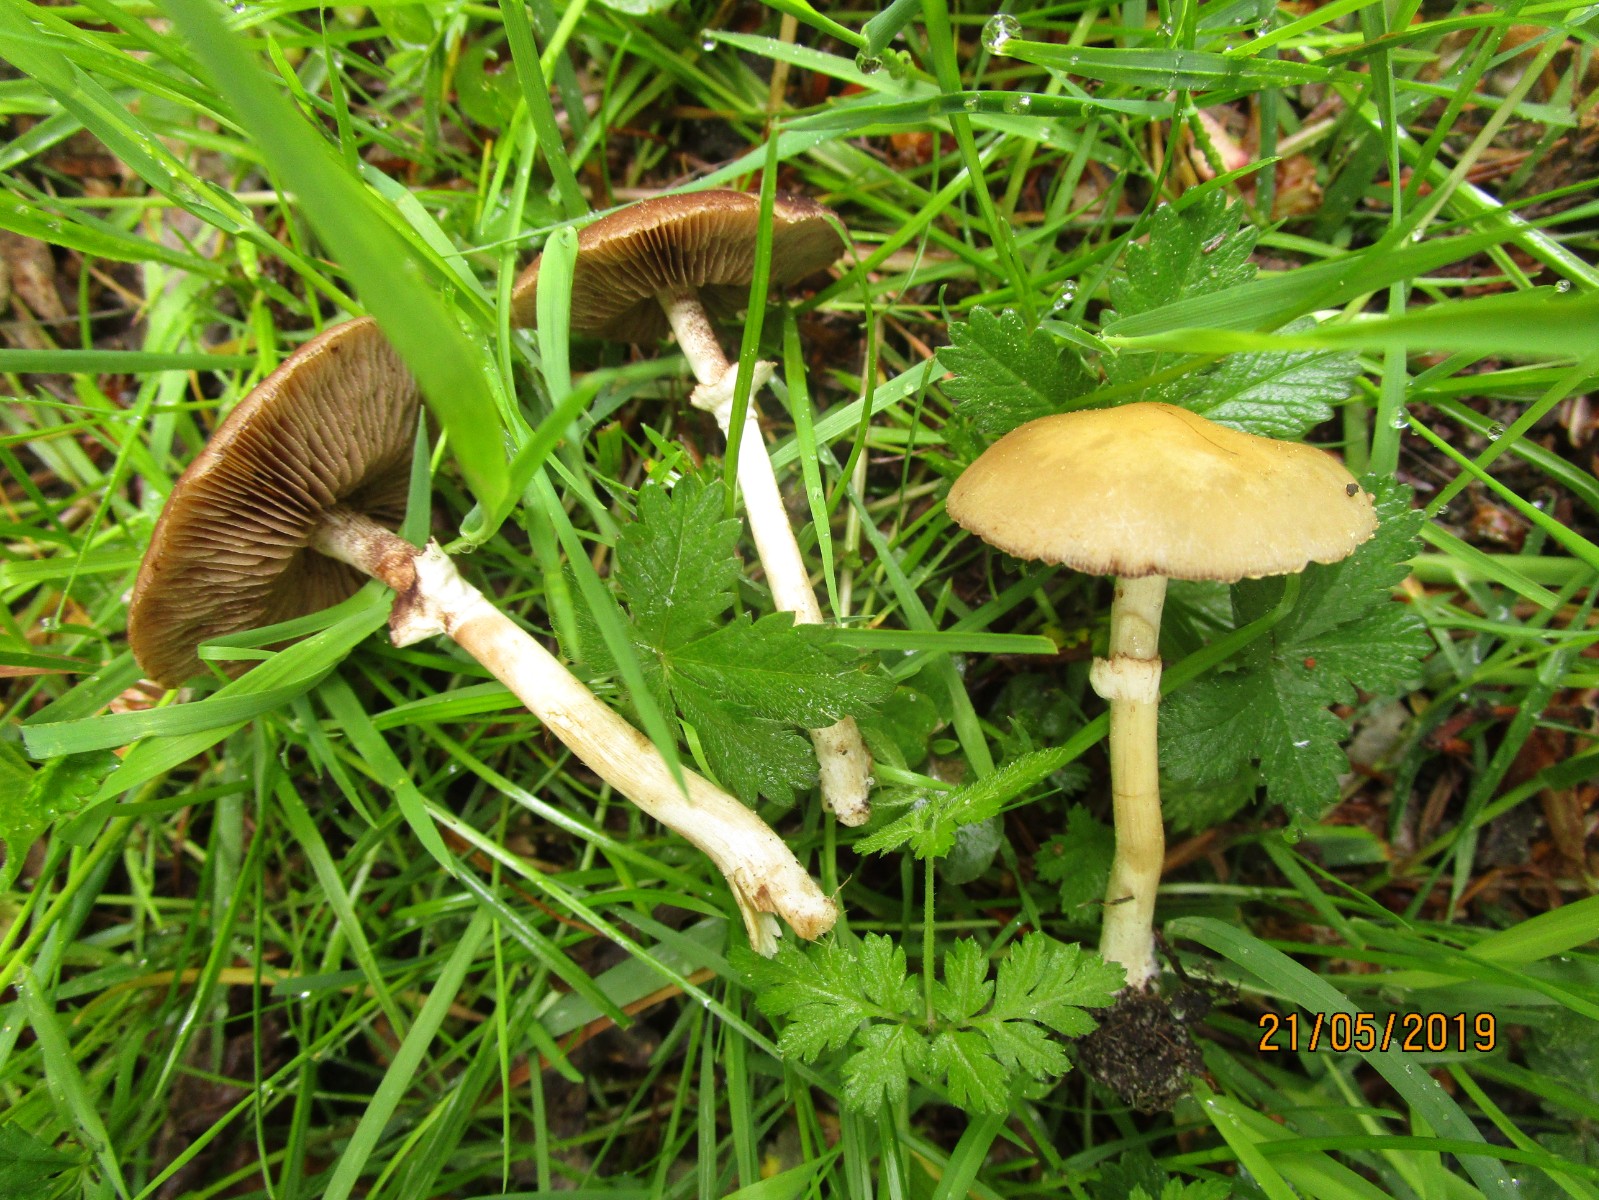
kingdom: Fungi
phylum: Basidiomycota
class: Agaricomycetes
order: Agaricales
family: Strophariaceae
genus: Agrocybe
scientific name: Agrocybe praecox
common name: tidlig agerhat
